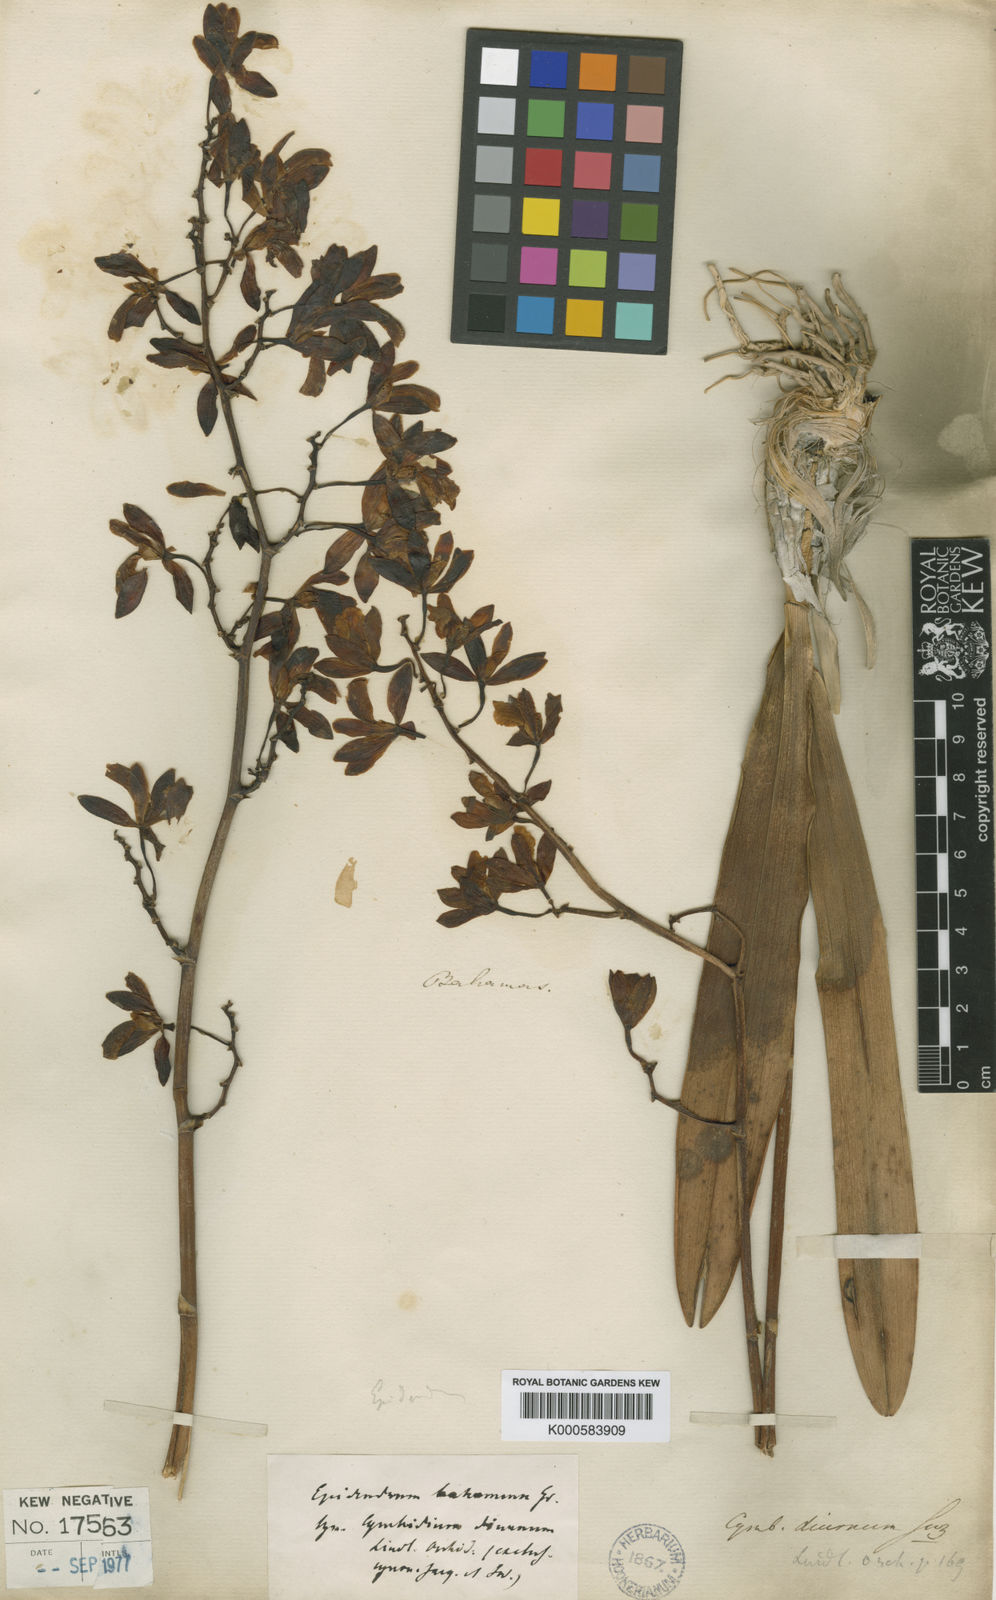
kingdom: Plantae
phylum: Tracheophyta
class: Liliopsida
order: Asparagales
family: Orchidaceae
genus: Encyclia
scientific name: Encyclia
